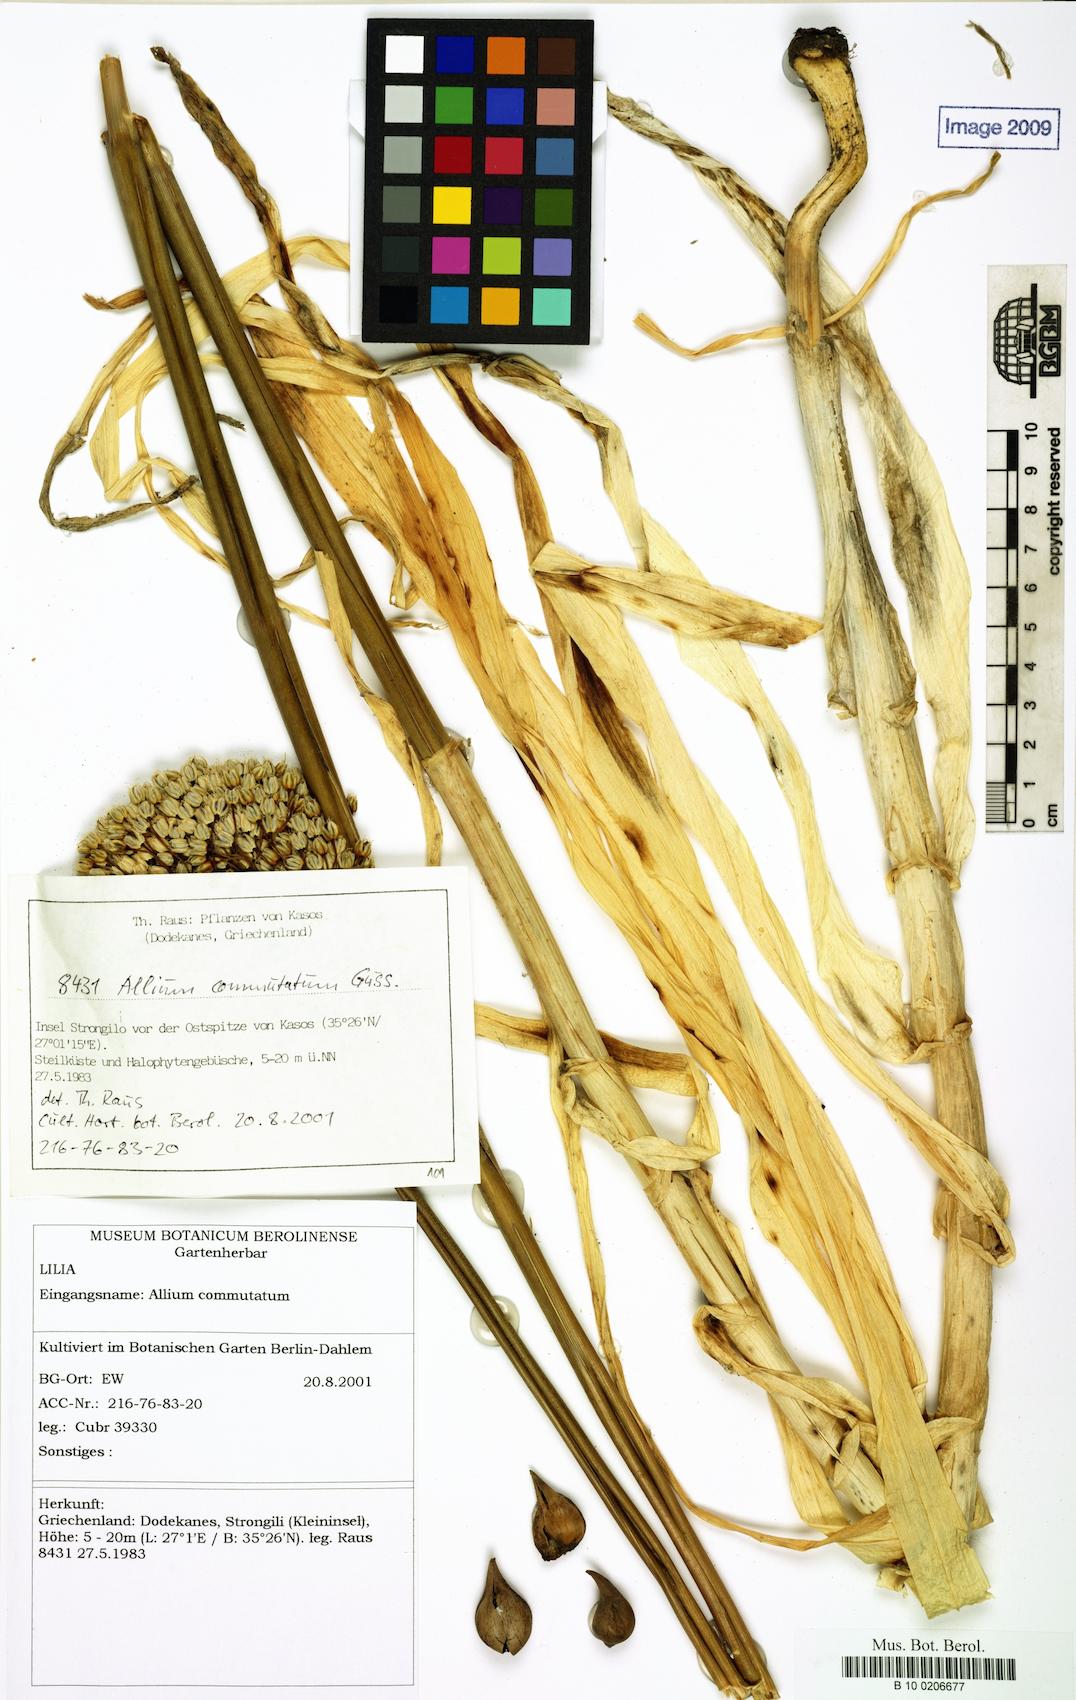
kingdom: Plantae
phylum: Tracheophyta
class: Liliopsida
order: Asparagales
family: Amaryllidaceae
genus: Allium
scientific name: Allium commutatum
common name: Sea garlic
